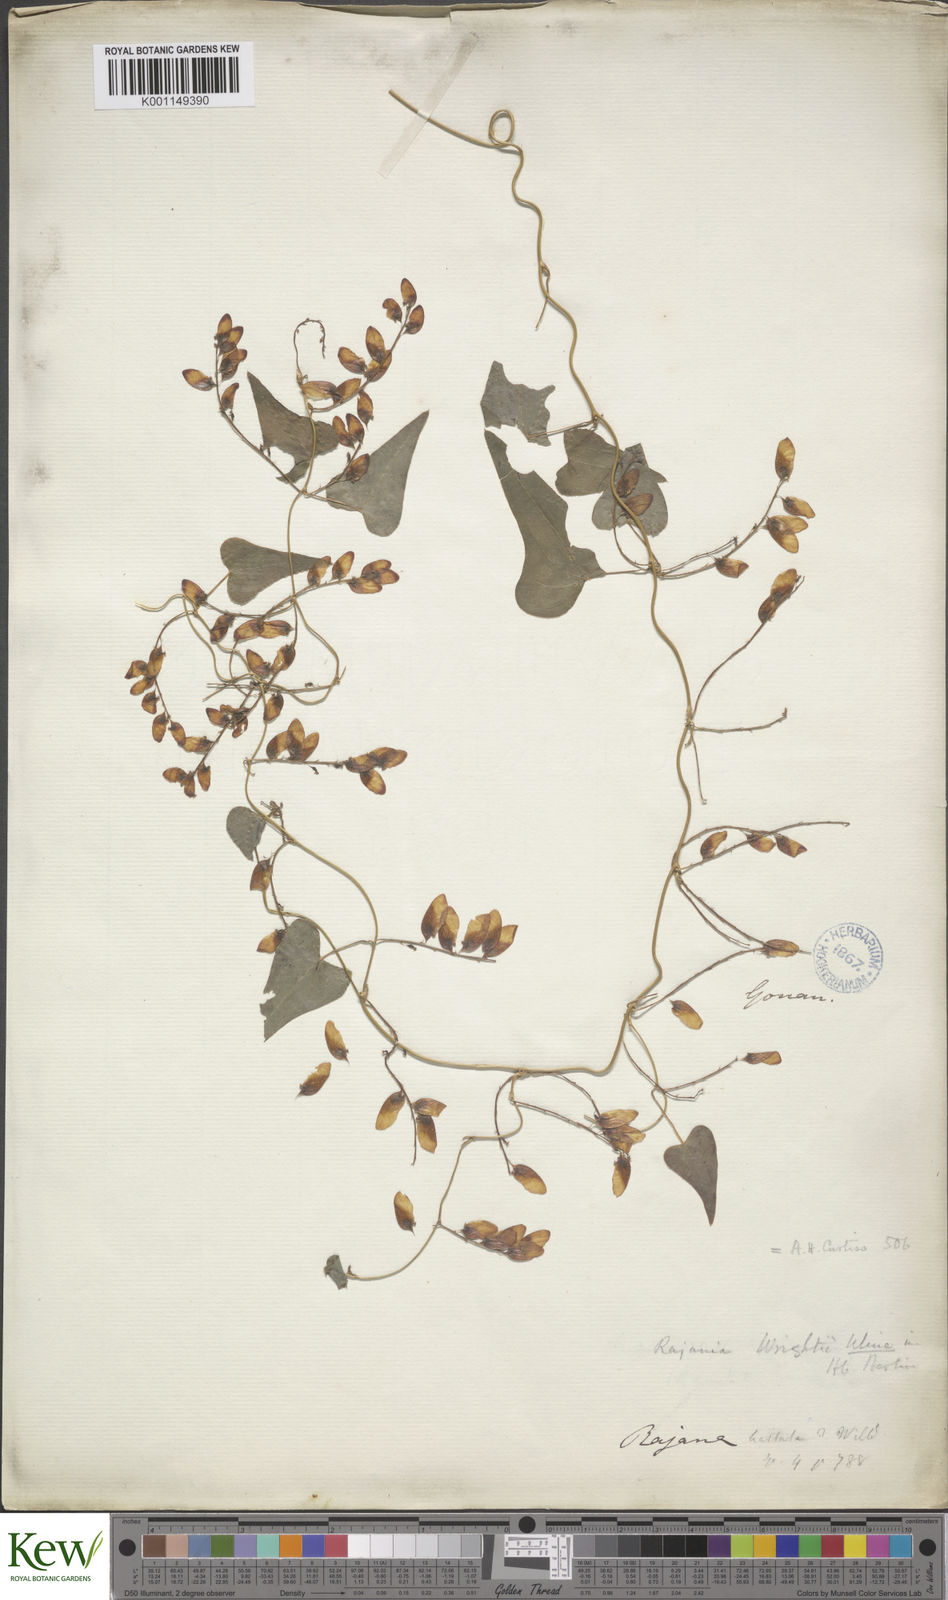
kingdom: Plantae
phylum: Tracheophyta
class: Liliopsida
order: Dioscoreales
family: Dioscoreaceae
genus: Dioscorea
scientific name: Dioscorea
